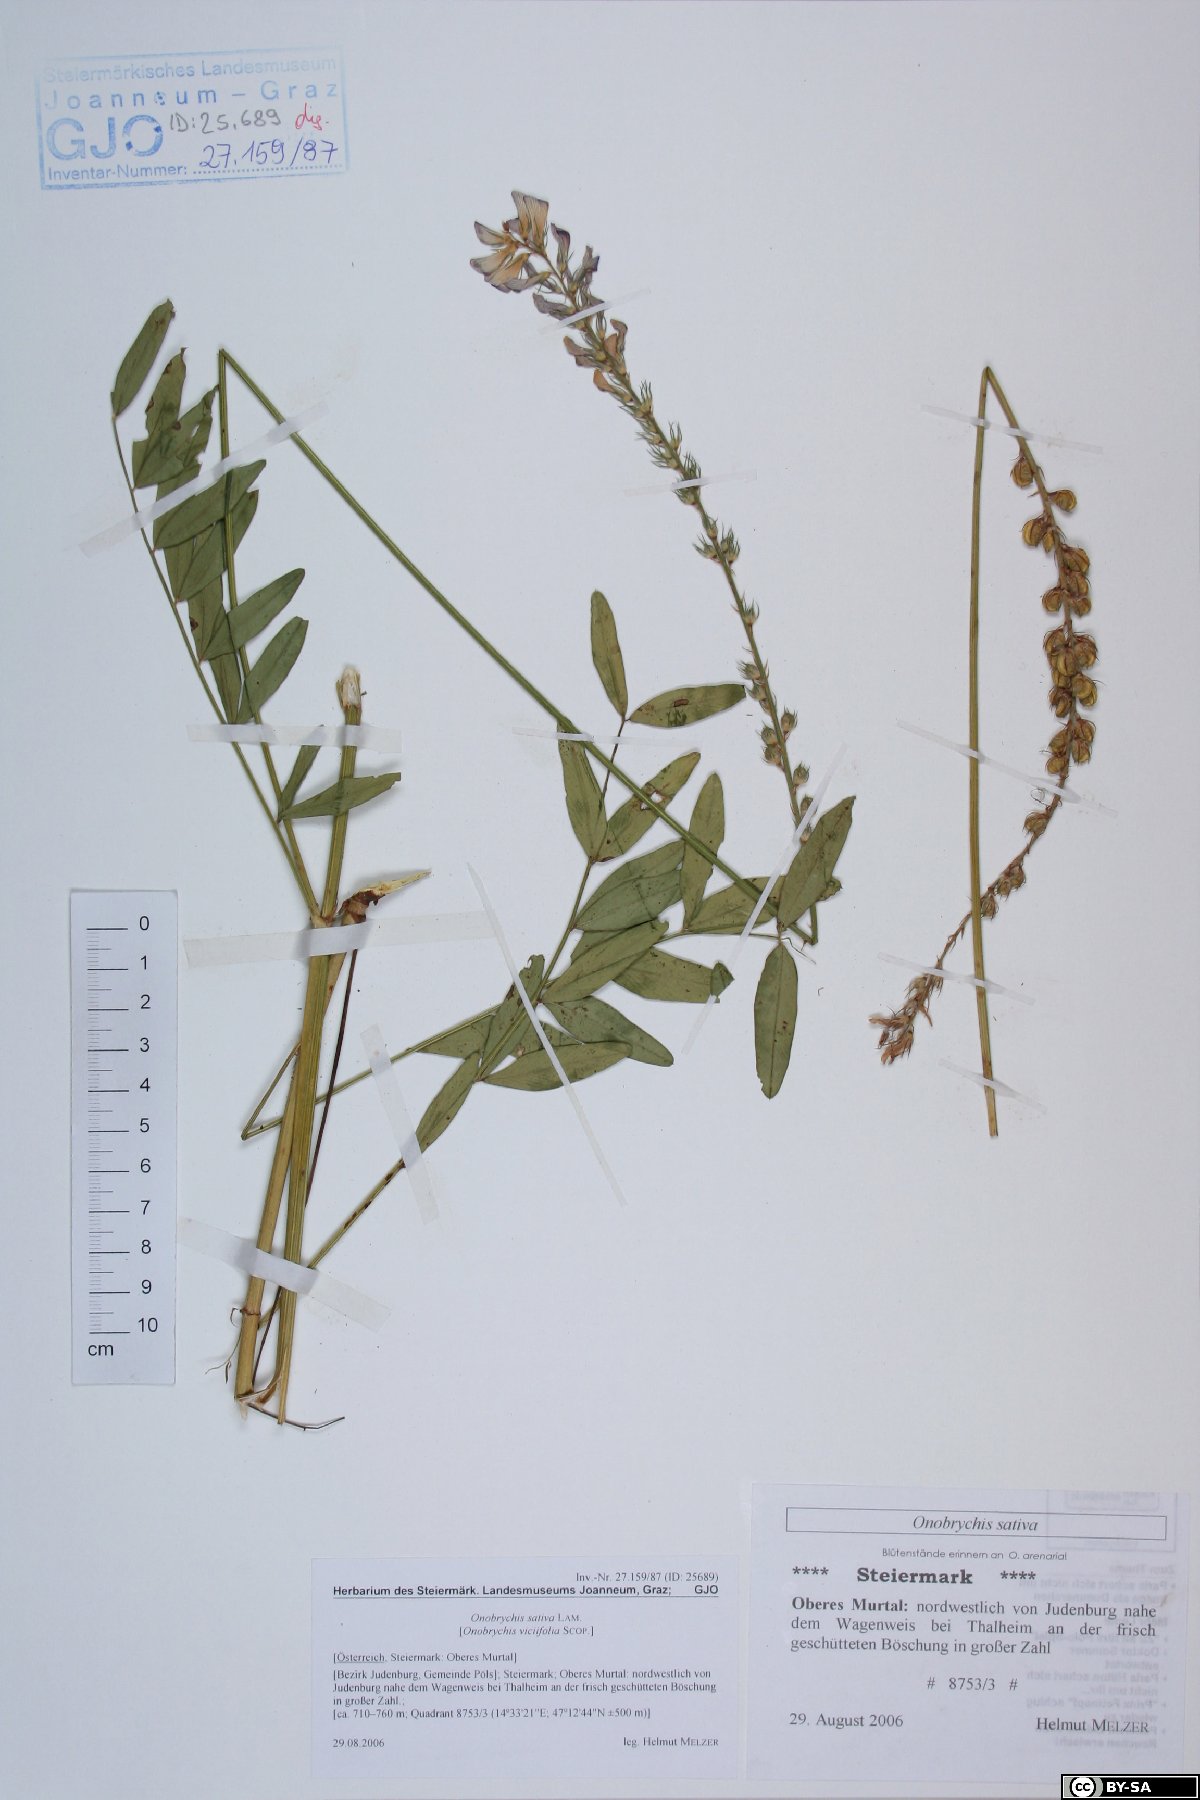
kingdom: Plantae
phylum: Tracheophyta
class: Magnoliopsida
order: Fabales
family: Fabaceae
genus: Onobrychis
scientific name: Onobrychis viciifolia
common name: Sainfoin
